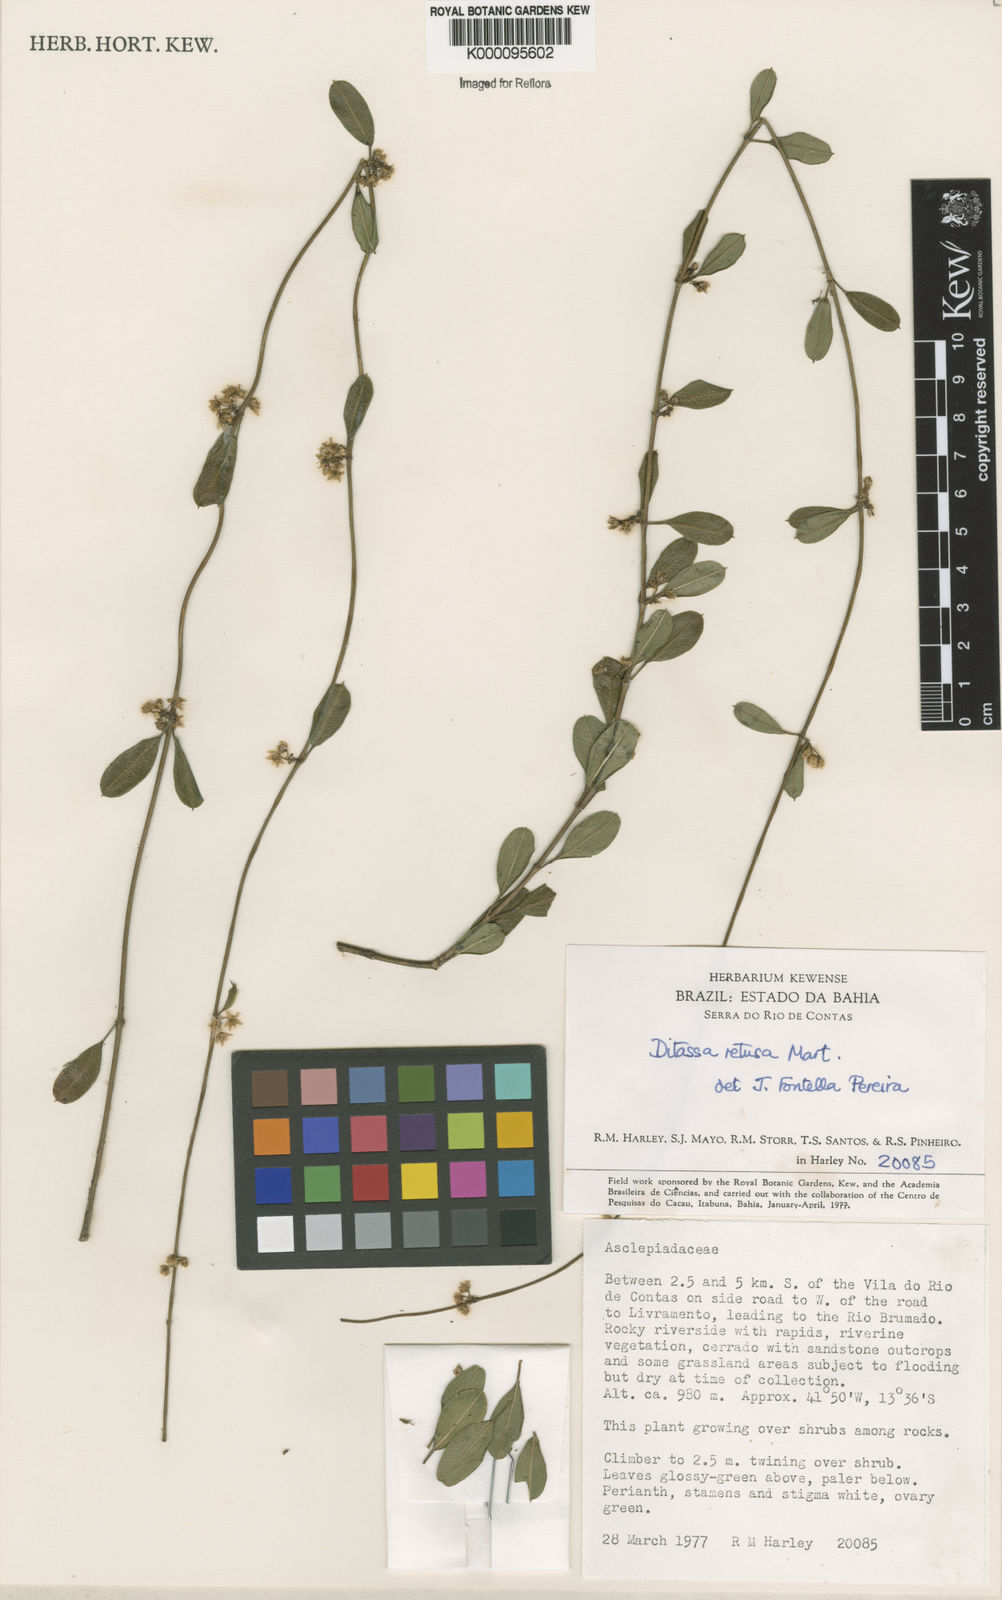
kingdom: Plantae
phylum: Tracheophyta
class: Magnoliopsida
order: Gentianales
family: Apocynaceae
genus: Ditassa
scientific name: Ditassa retusa
